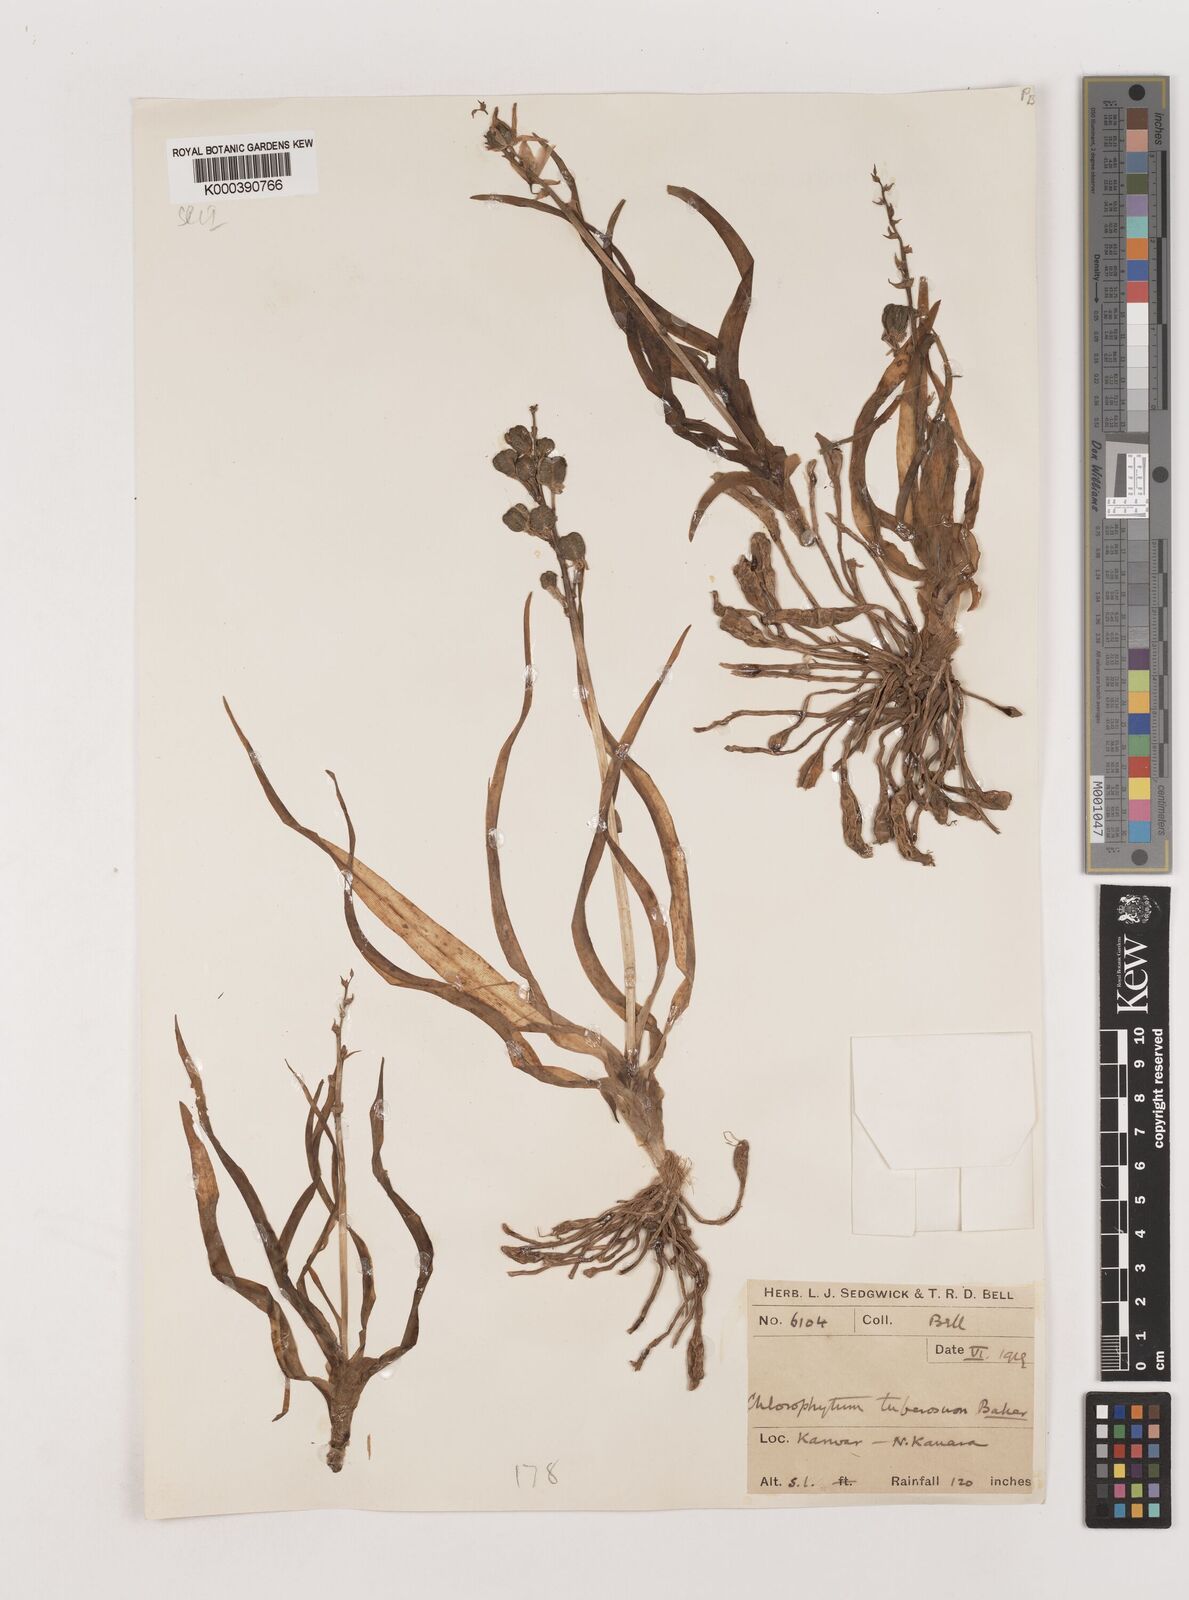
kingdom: Plantae
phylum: Tracheophyta
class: Liliopsida
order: Asparagales
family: Asparagaceae
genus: Chlorophytum
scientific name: Chlorophytum tuberosum
